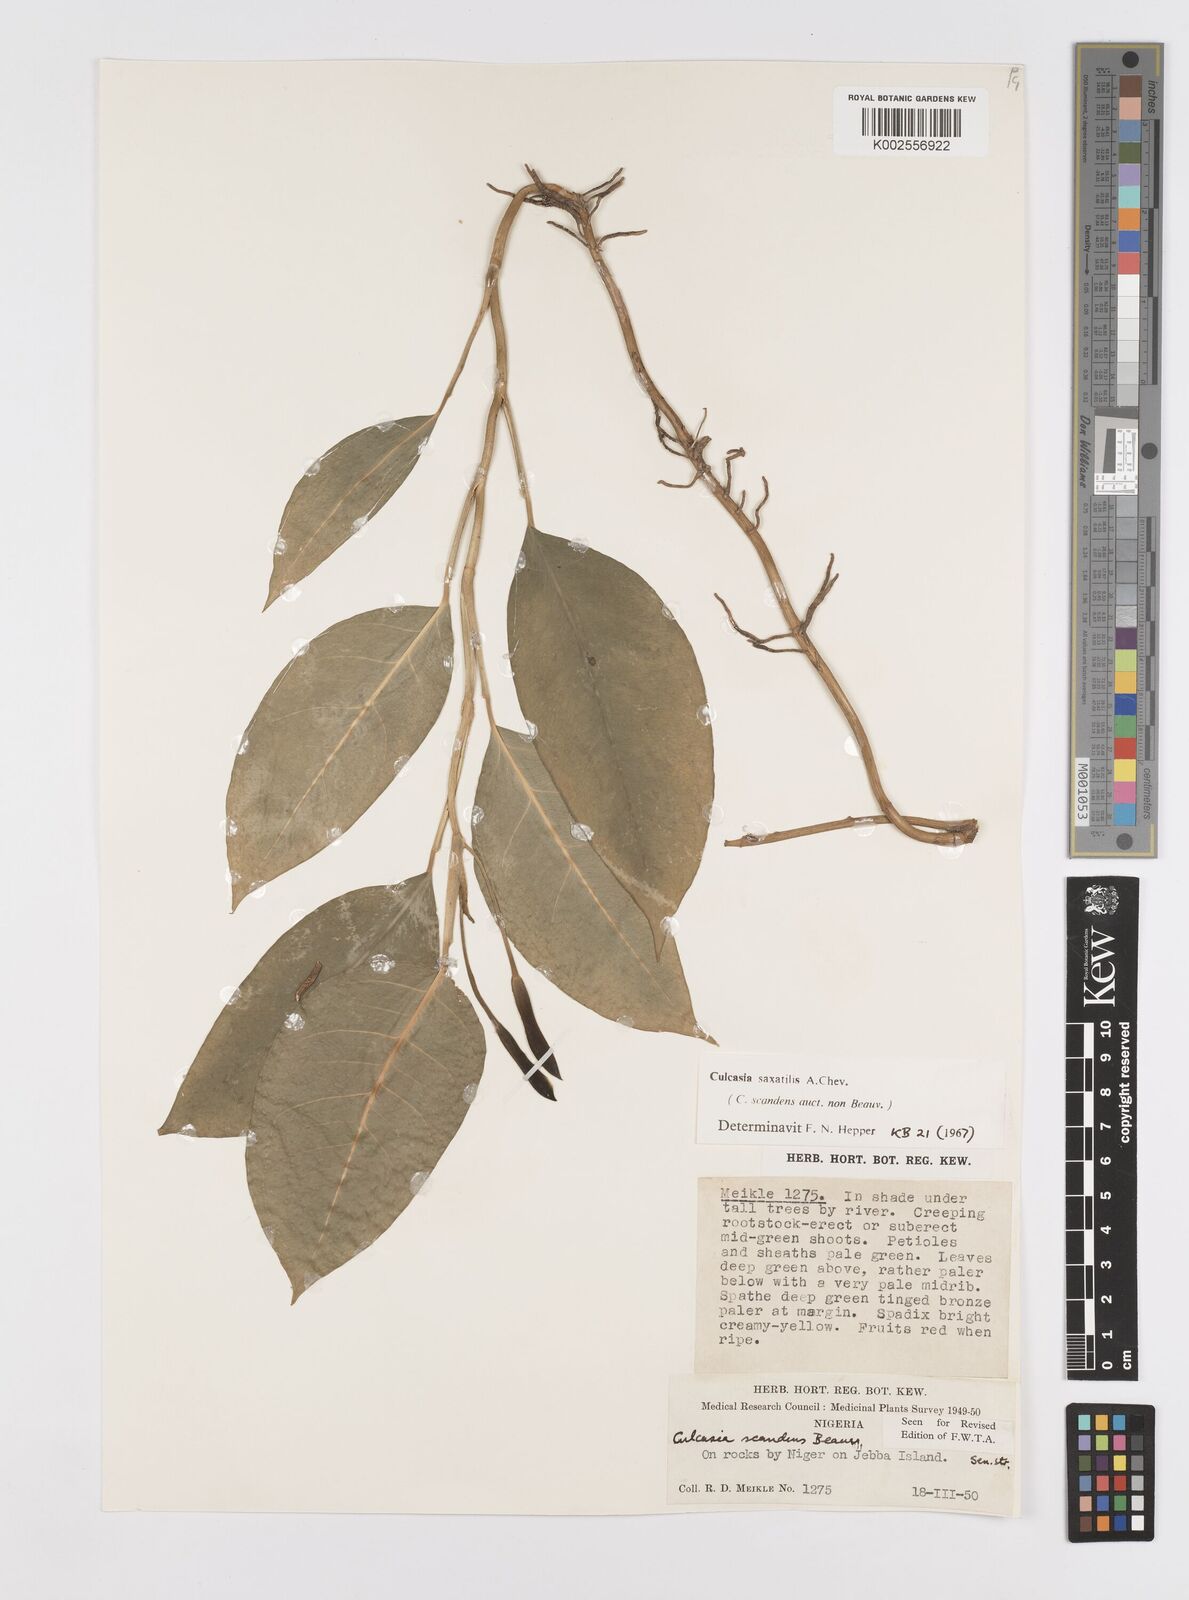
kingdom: Plantae
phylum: Tracheophyta
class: Liliopsida
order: Alismatales
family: Araceae
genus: Culcasia
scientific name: Culcasia scandens
